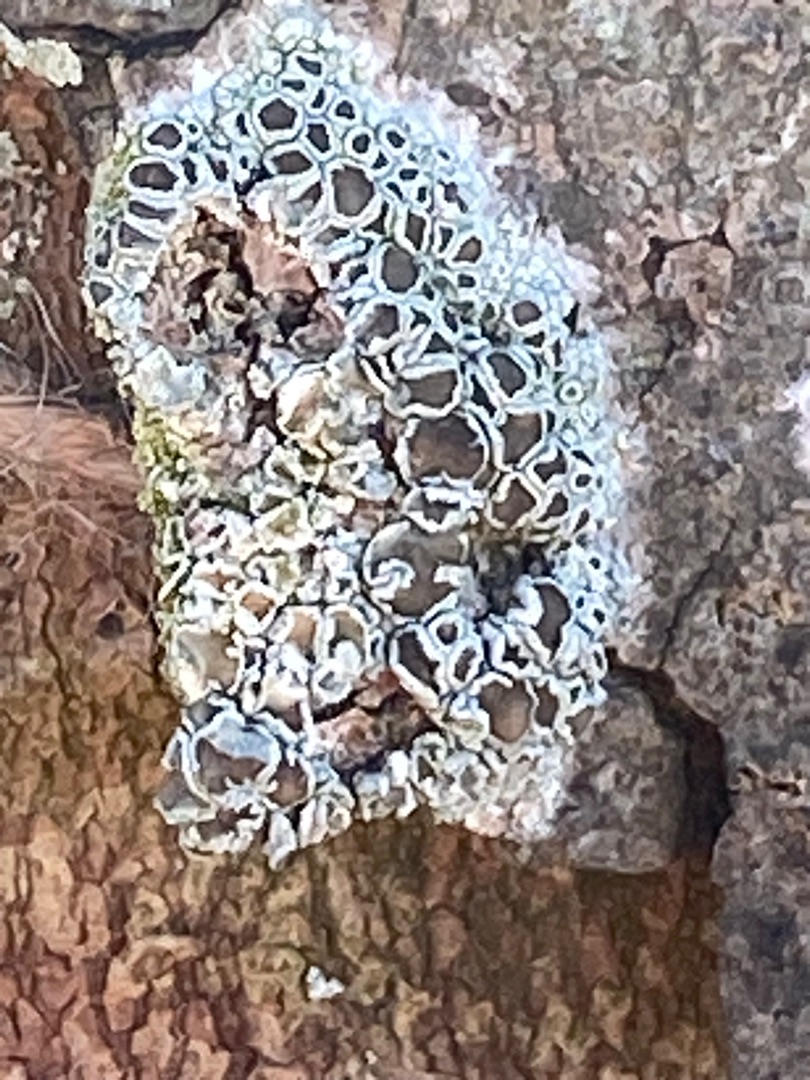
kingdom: Fungi
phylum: Ascomycota
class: Lecanoromycetes
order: Lecanorales
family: Lecanoraceae
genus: Lecanora
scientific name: Lecanora chlarotera
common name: Brun kantskivelav
